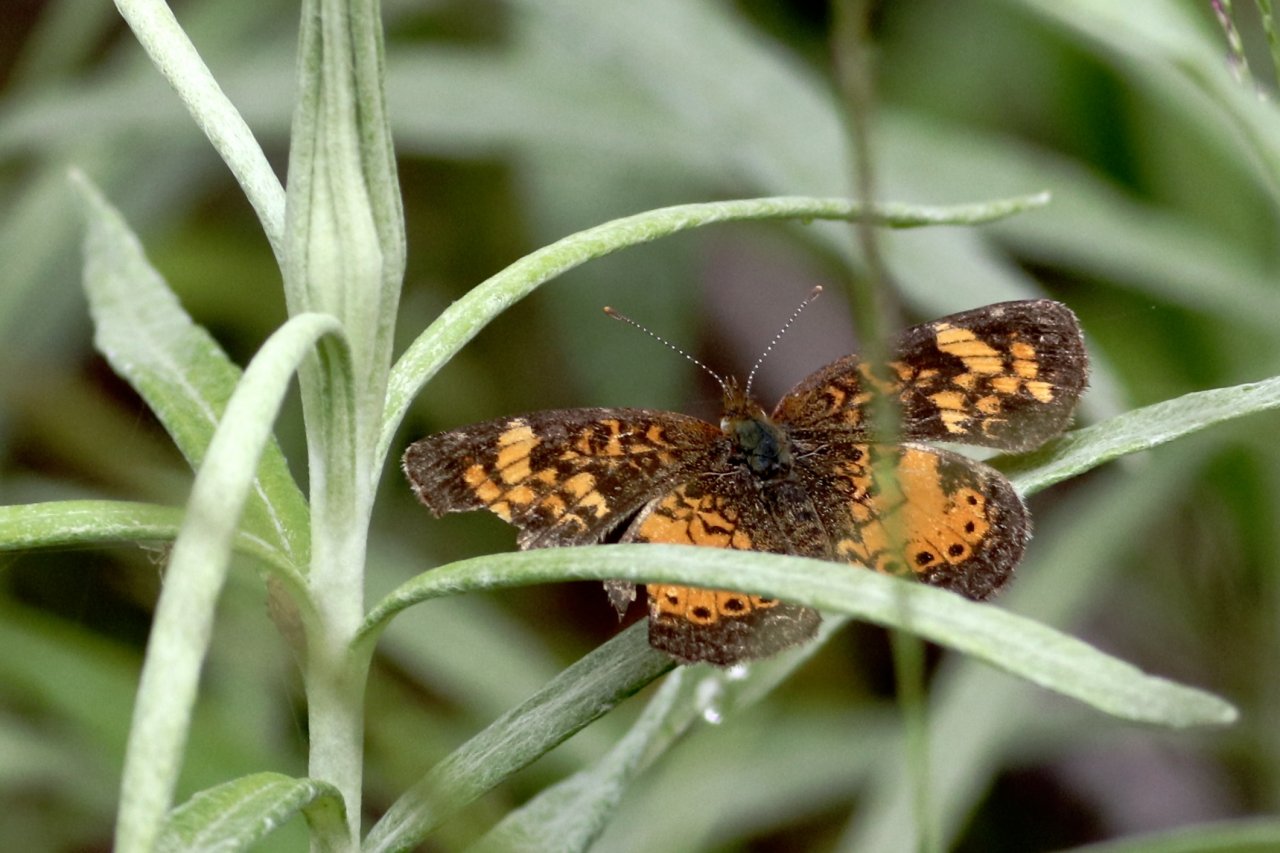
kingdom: Animalia
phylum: Arthropoda
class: Insecta
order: Lepidoptera
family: Nymphalidae
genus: Phyciodes
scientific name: Phyciodes tharos
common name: Northern Crescent
